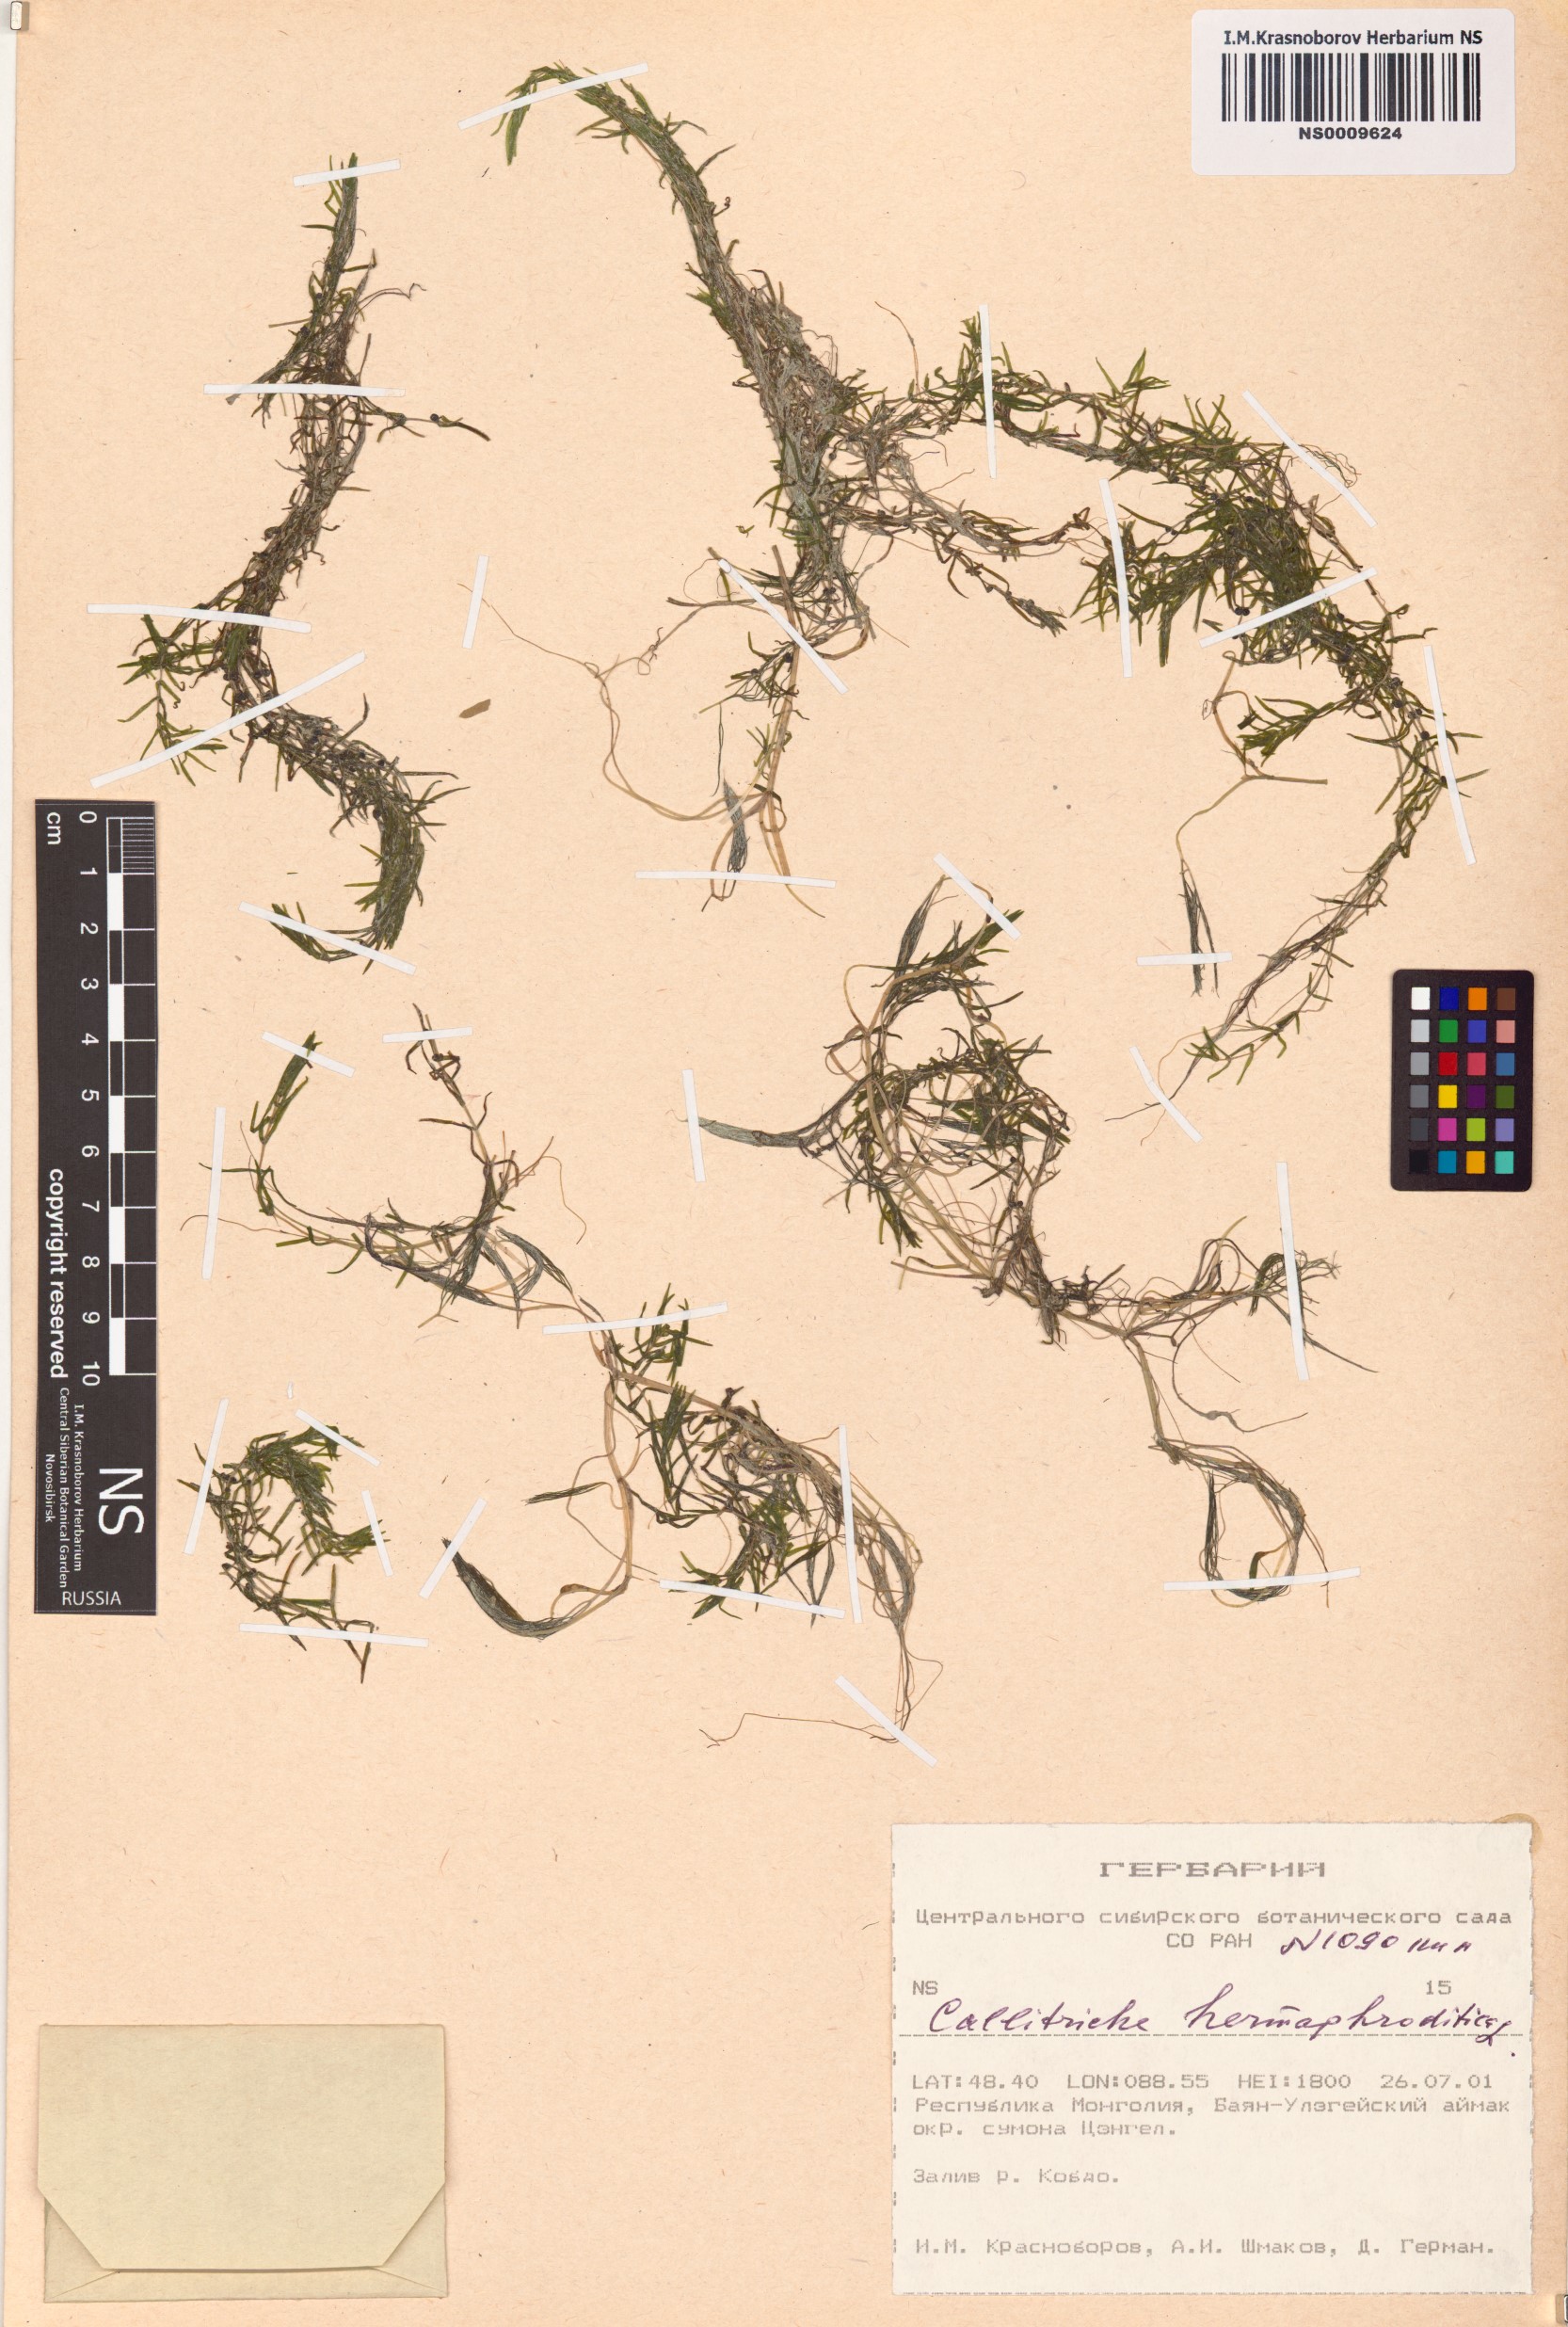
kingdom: Plantae
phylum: Tracheophyta
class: Magnoliopsida
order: Lamiales
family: Plantaginaceae
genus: Callitriche
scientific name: Callitriche hermaphroditica
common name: Autumnal water-starwort
